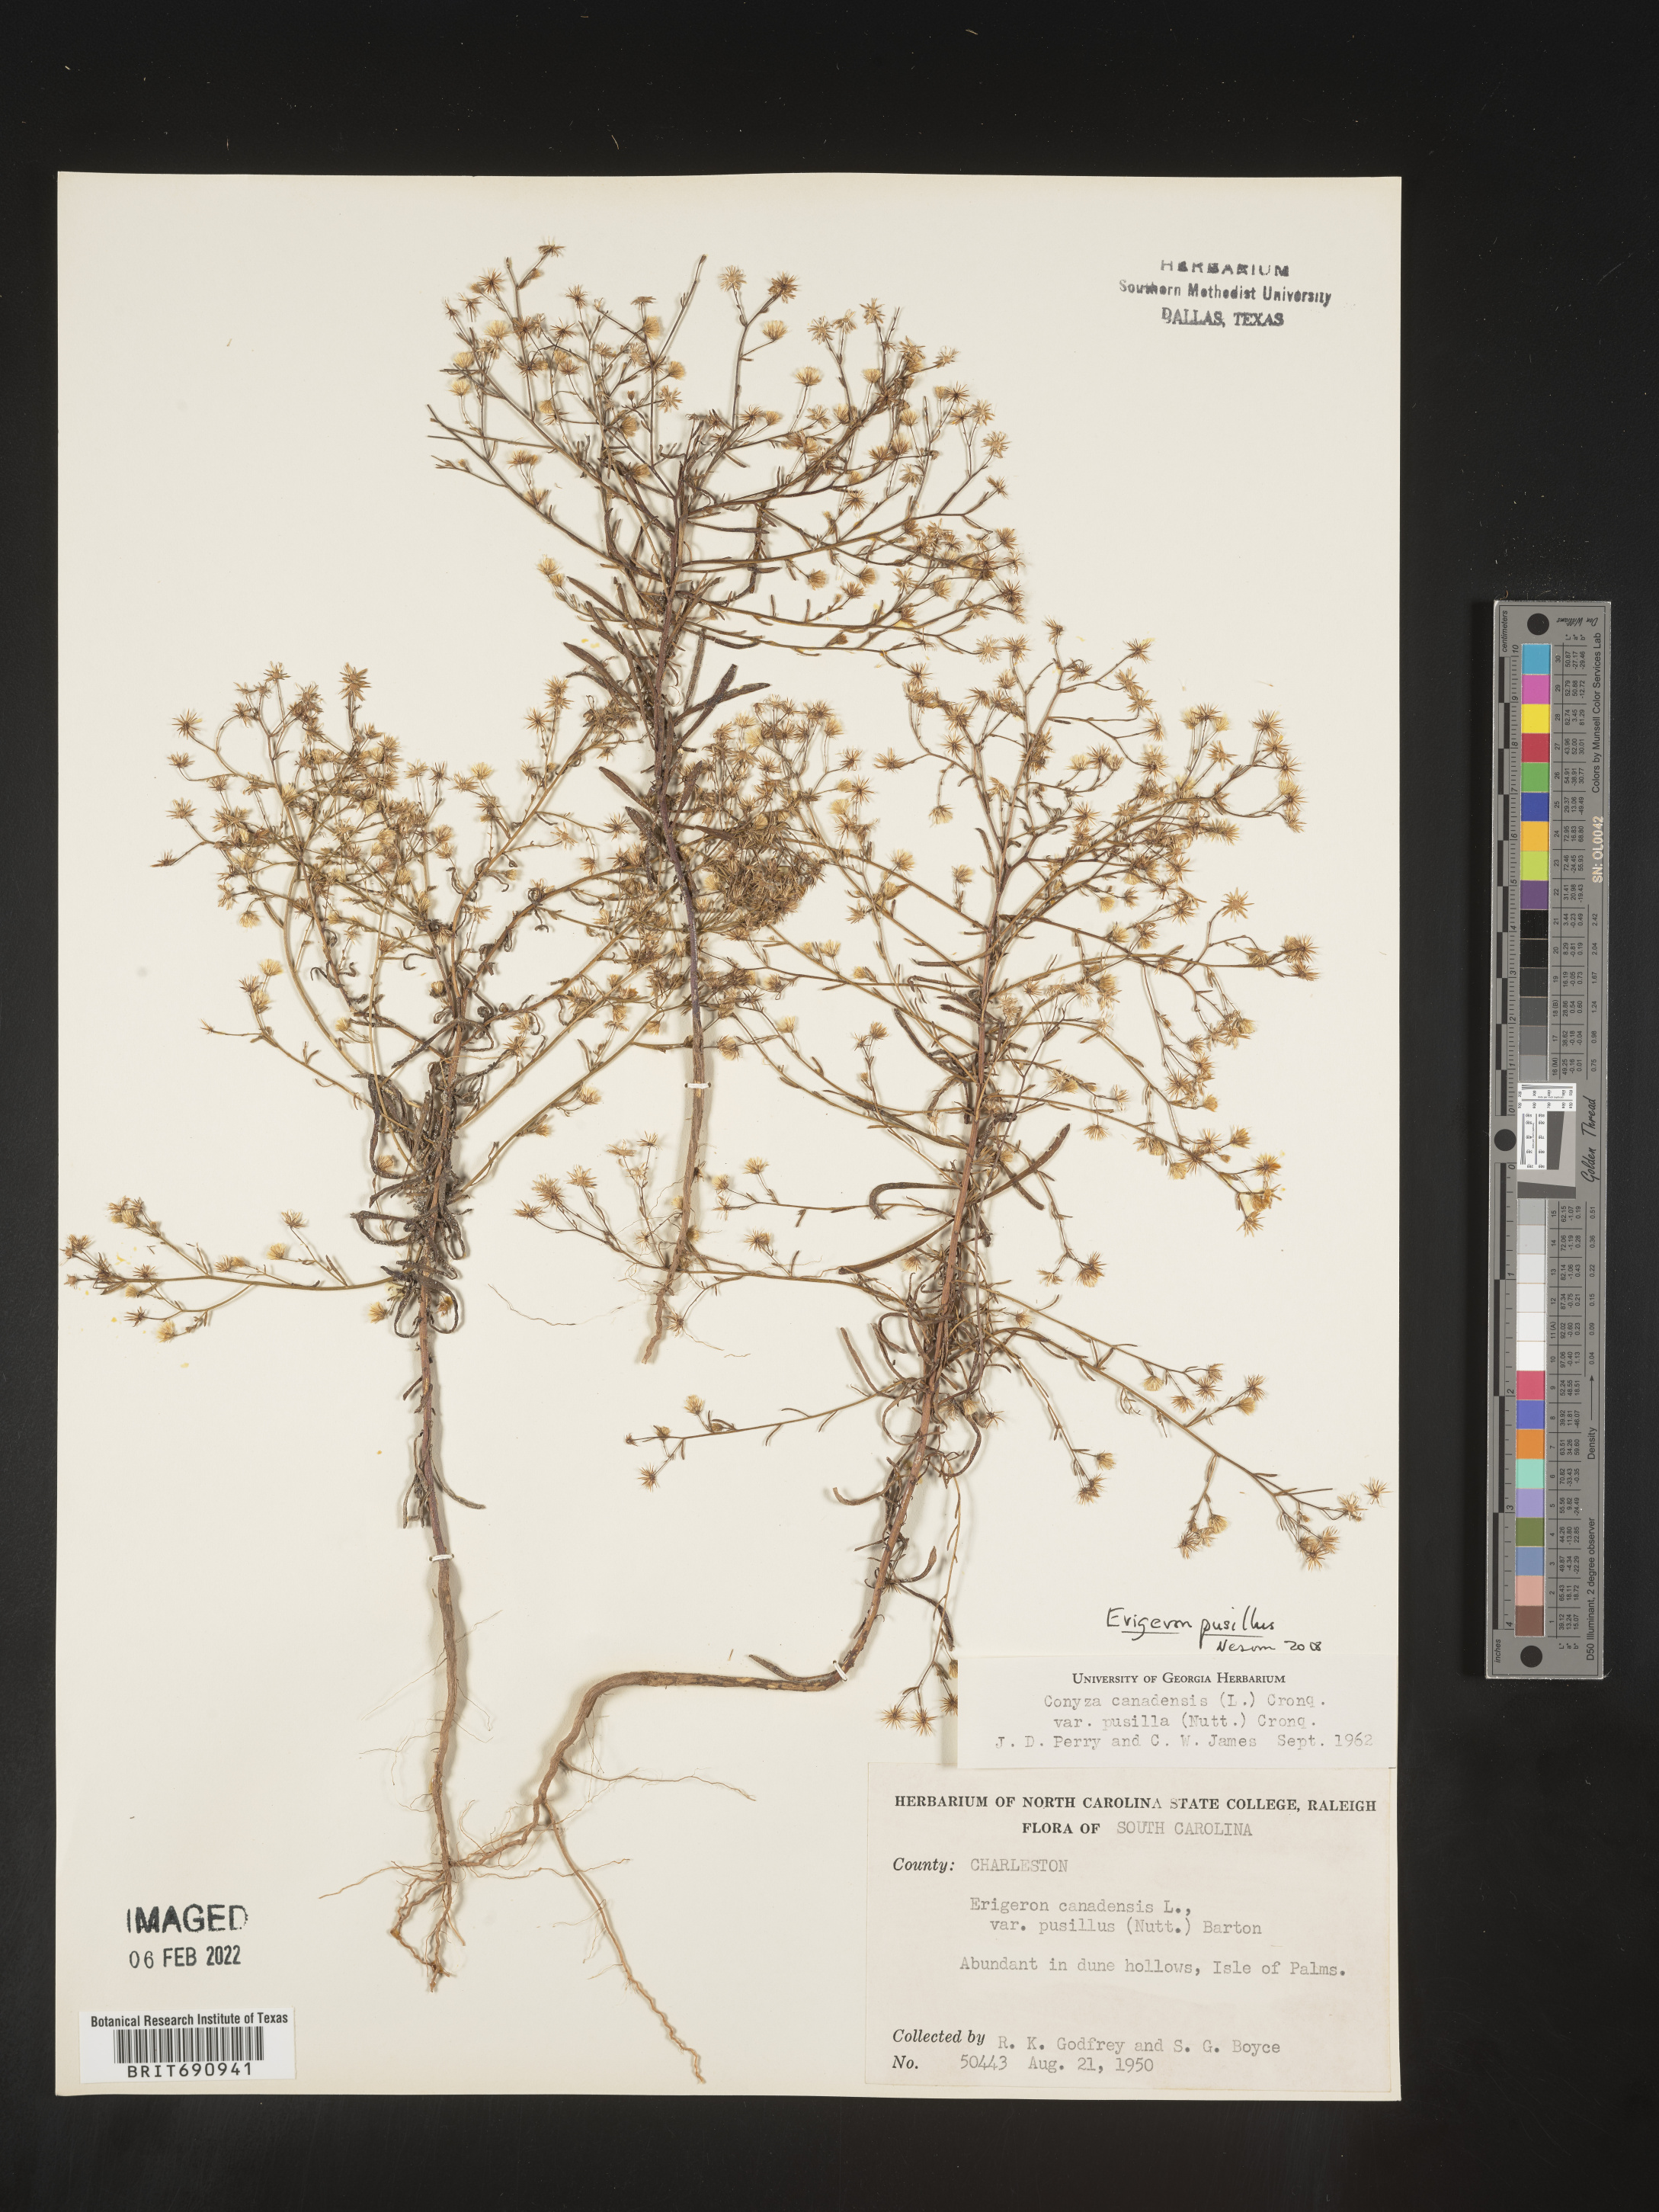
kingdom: Plantae
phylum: Tracheophyta
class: Magnoliopsida
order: Asterales
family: Asteraceae
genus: Erigeron
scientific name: Erigeron canadensis
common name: Canadian fleabane
